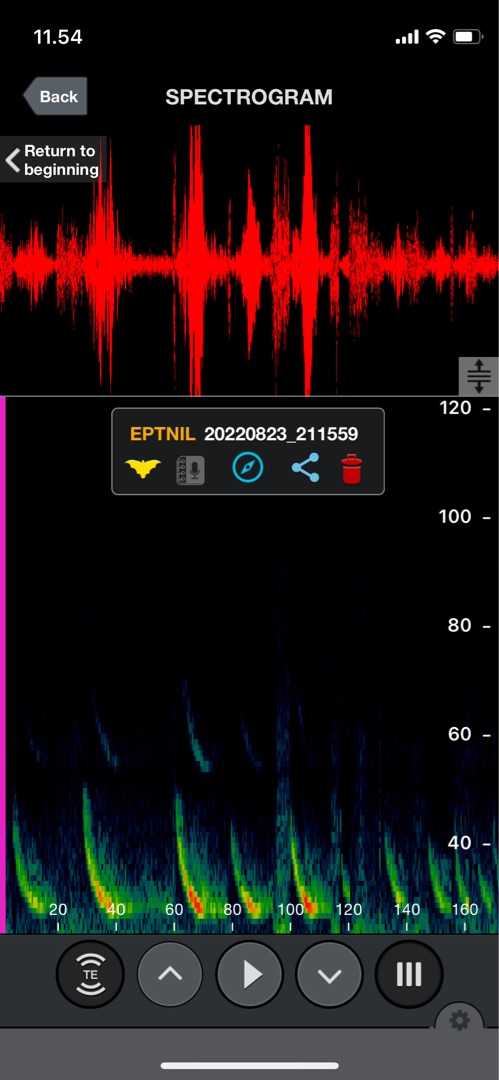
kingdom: Animalia
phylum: Chordata
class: Mammalia
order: Chiroptera
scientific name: Chiroptera
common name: Flagermus
